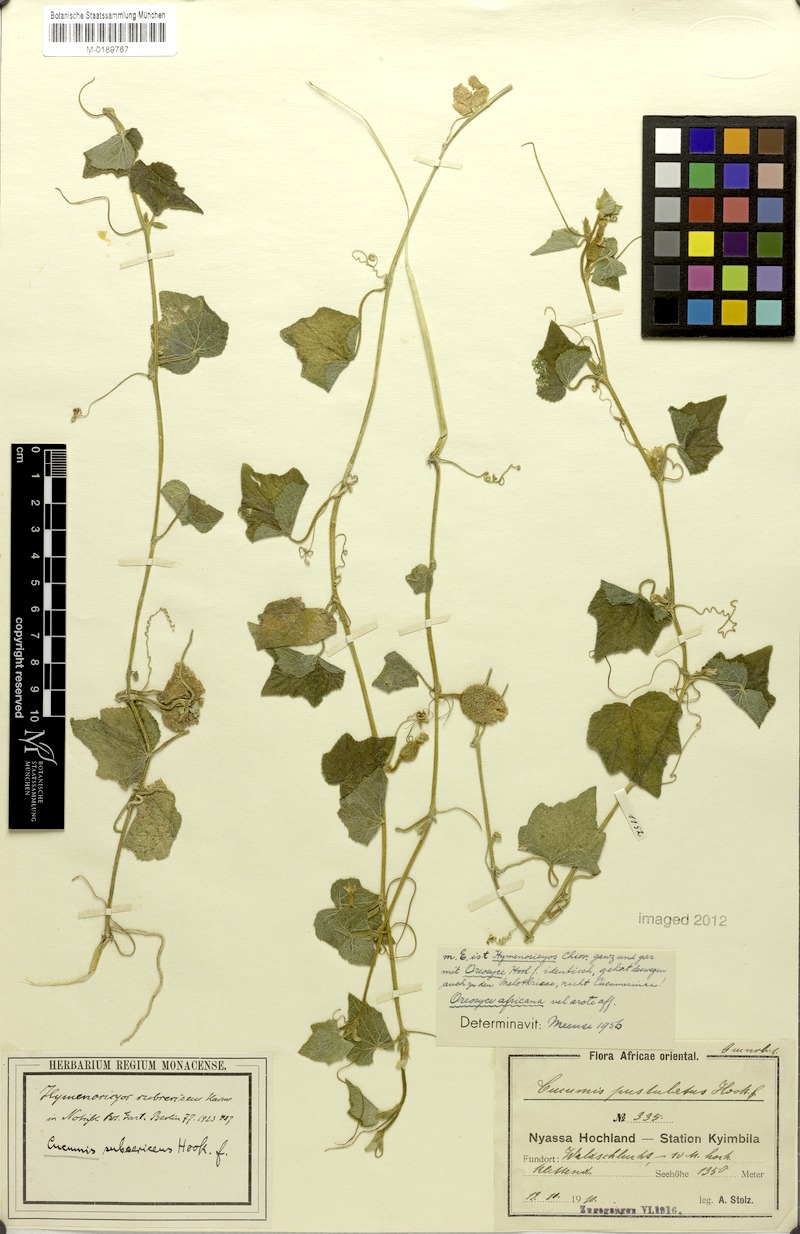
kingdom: Plantae
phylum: Tracheophyta
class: Magnoliopsida
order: Cucurbitales
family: Cucurbitaceae
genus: Cucumis
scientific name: Cucumis oreosyce
